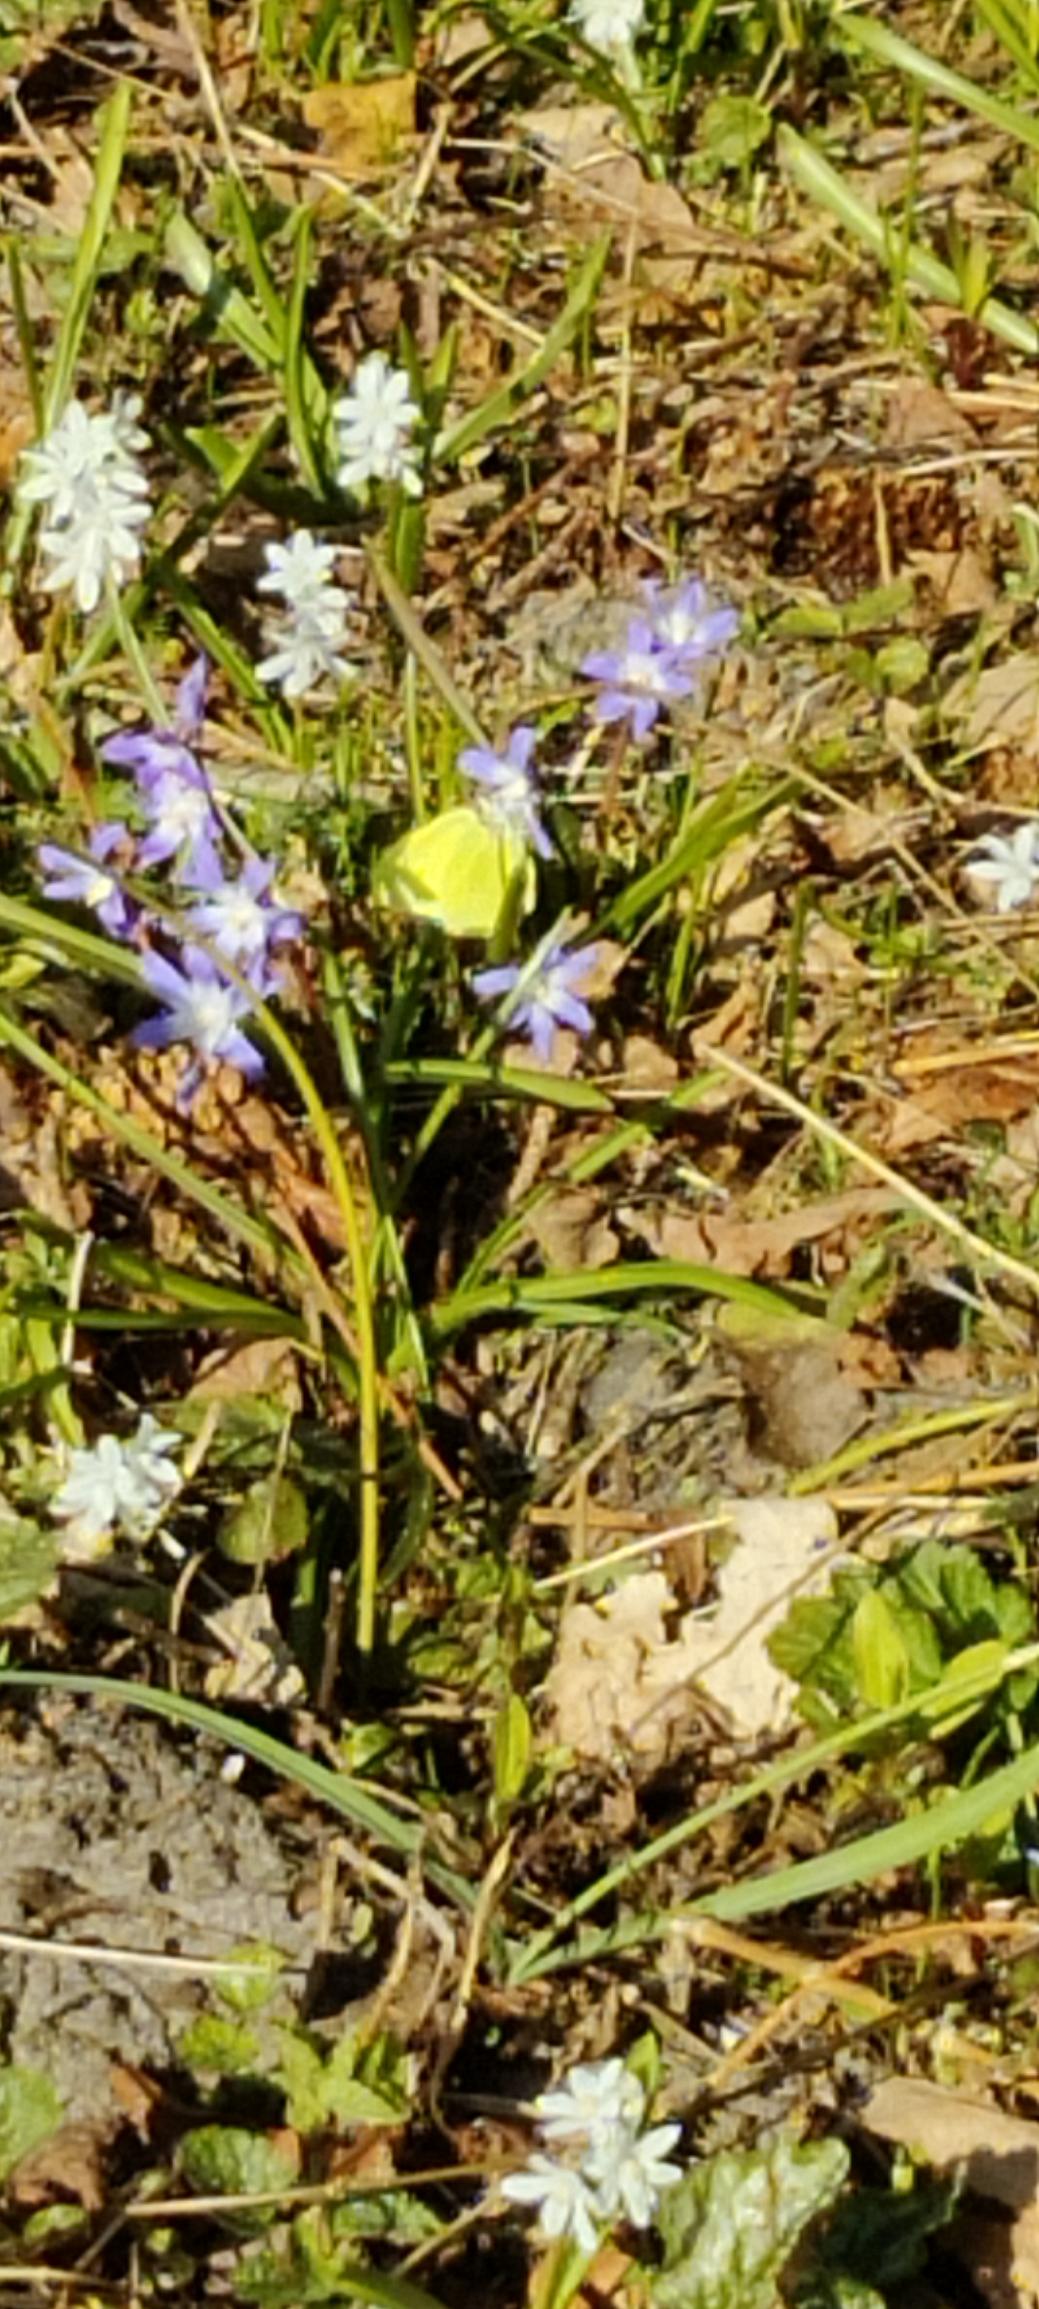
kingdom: Animalia
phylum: Arthropoda
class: Insecta
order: Lepidoptera
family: Pieridae
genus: Gonepteryx
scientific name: Gonepteryx rhamni
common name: Citronsommerfugl
